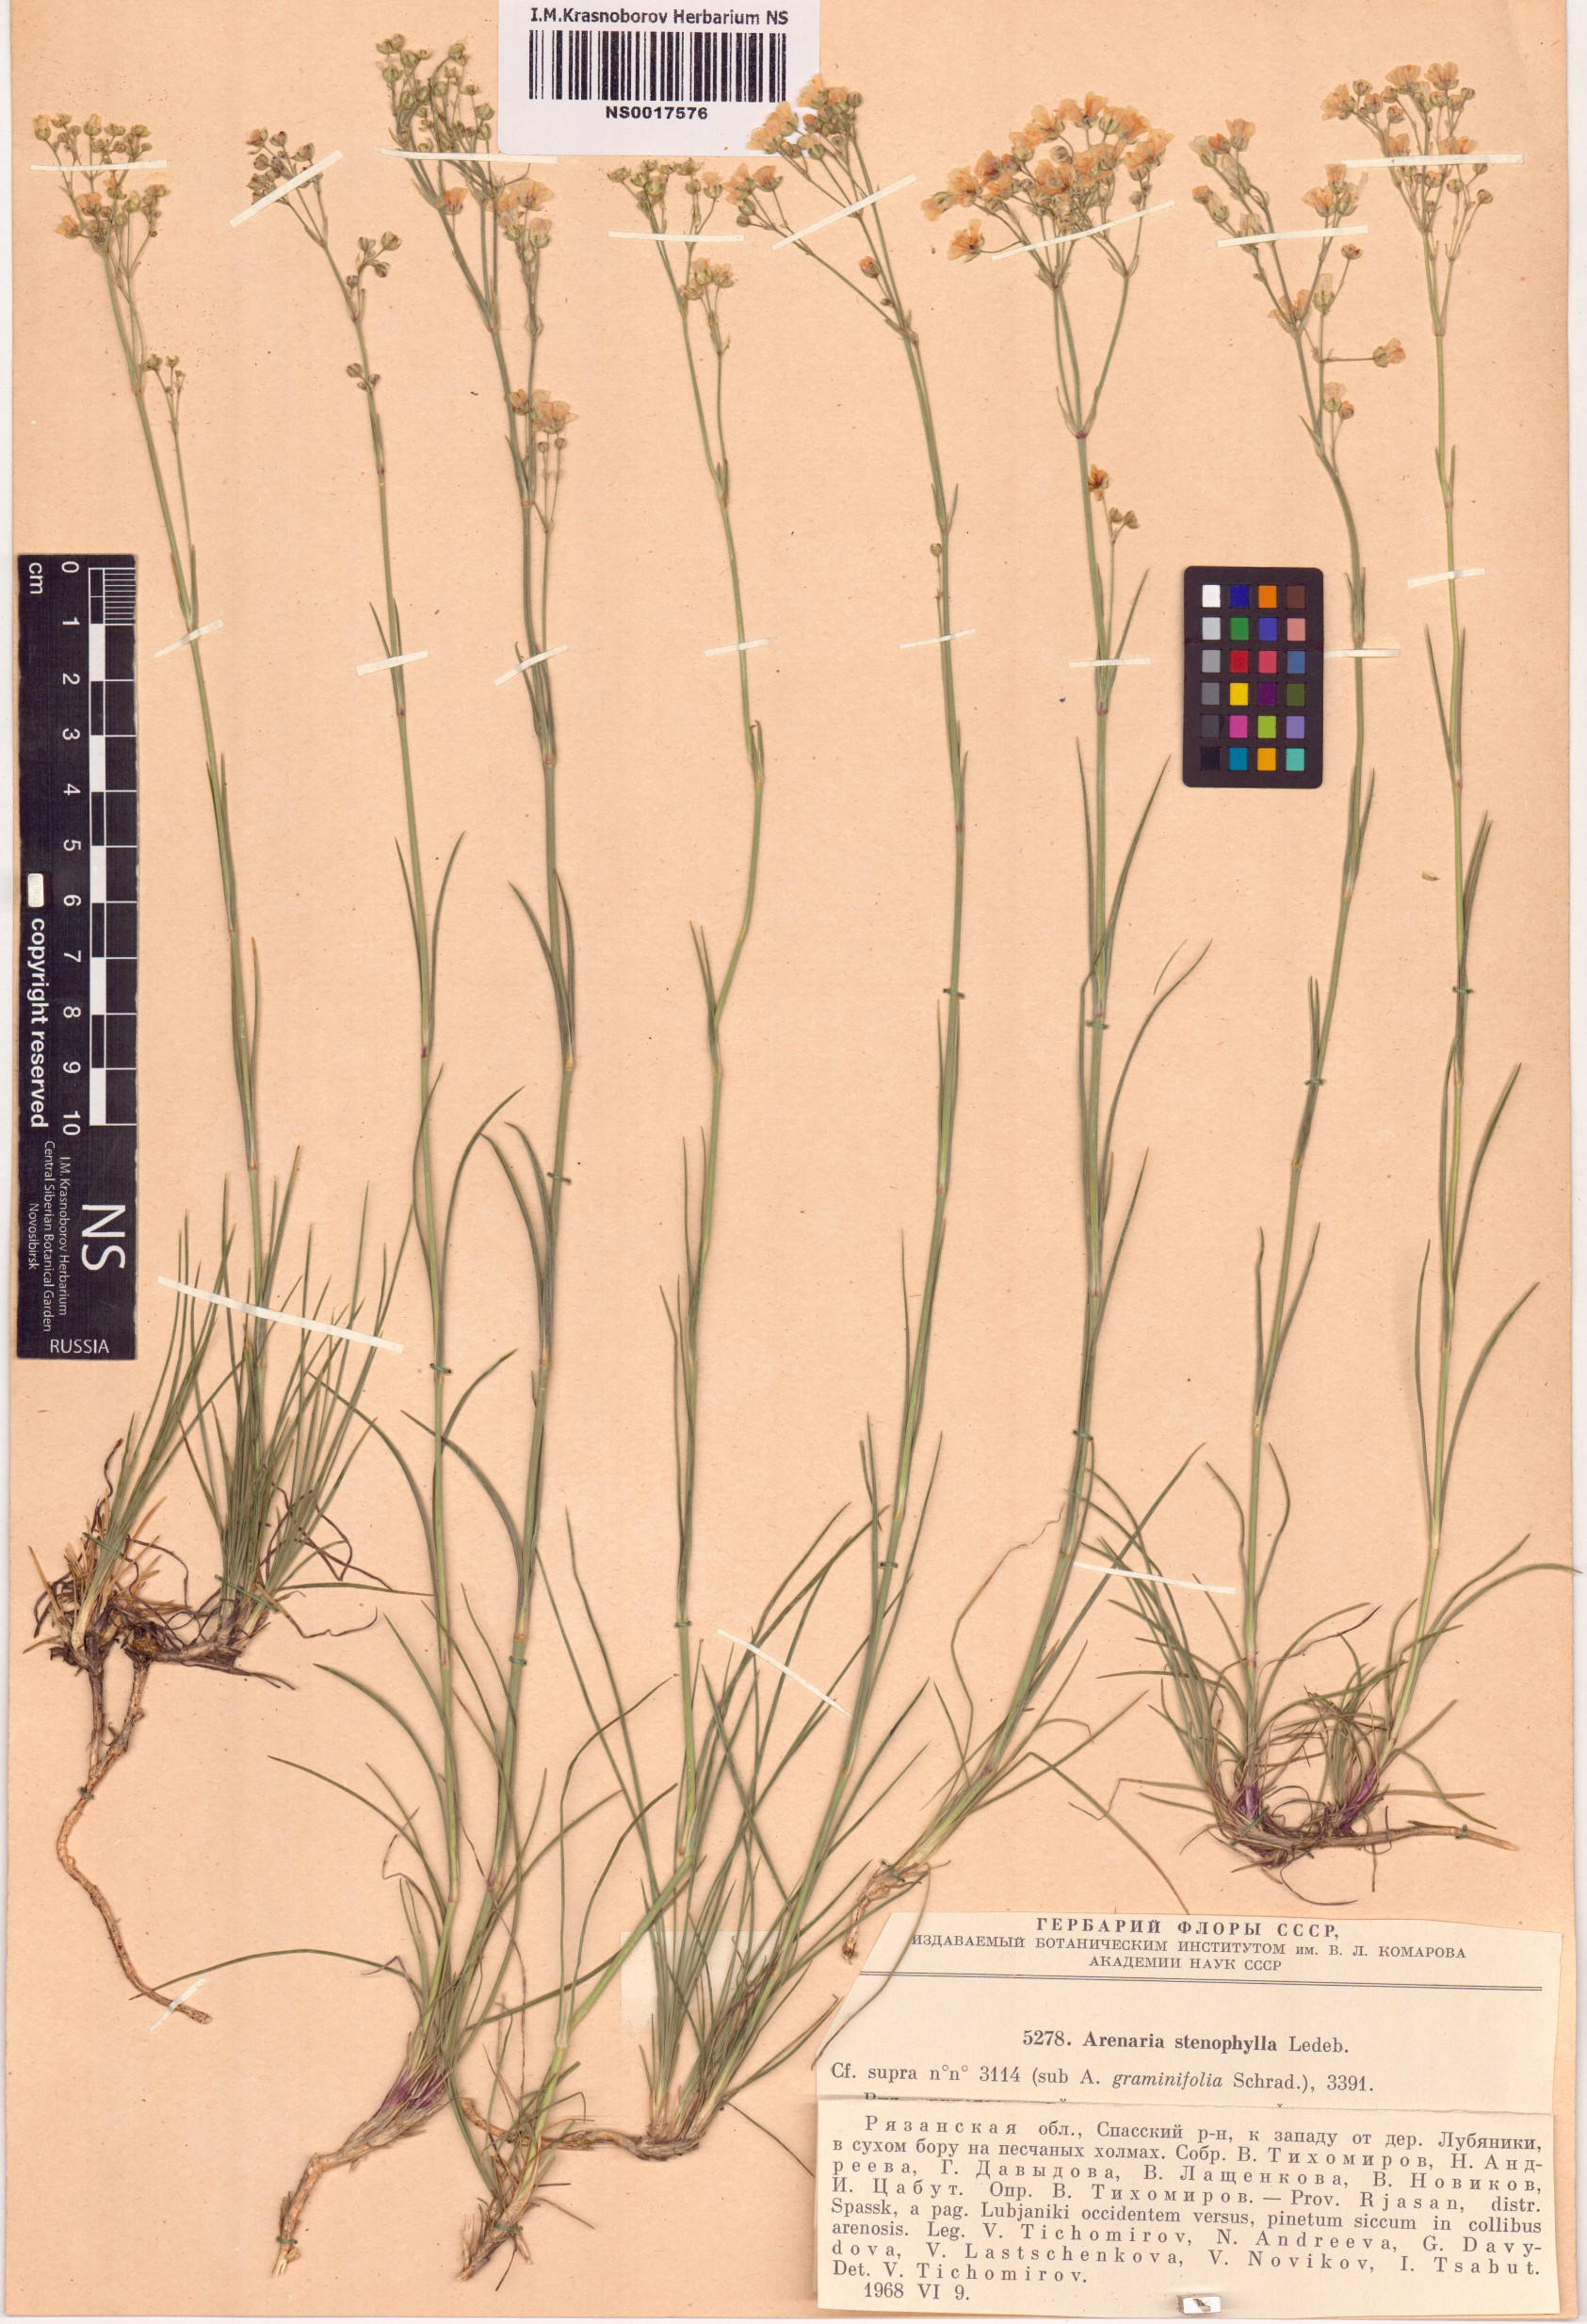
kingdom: Plantae
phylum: Tracheophyta
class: Magnoliopsida
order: Caryophyllales
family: Caryophyllaceae
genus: Eremogone
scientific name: Eremogone saxatilis
